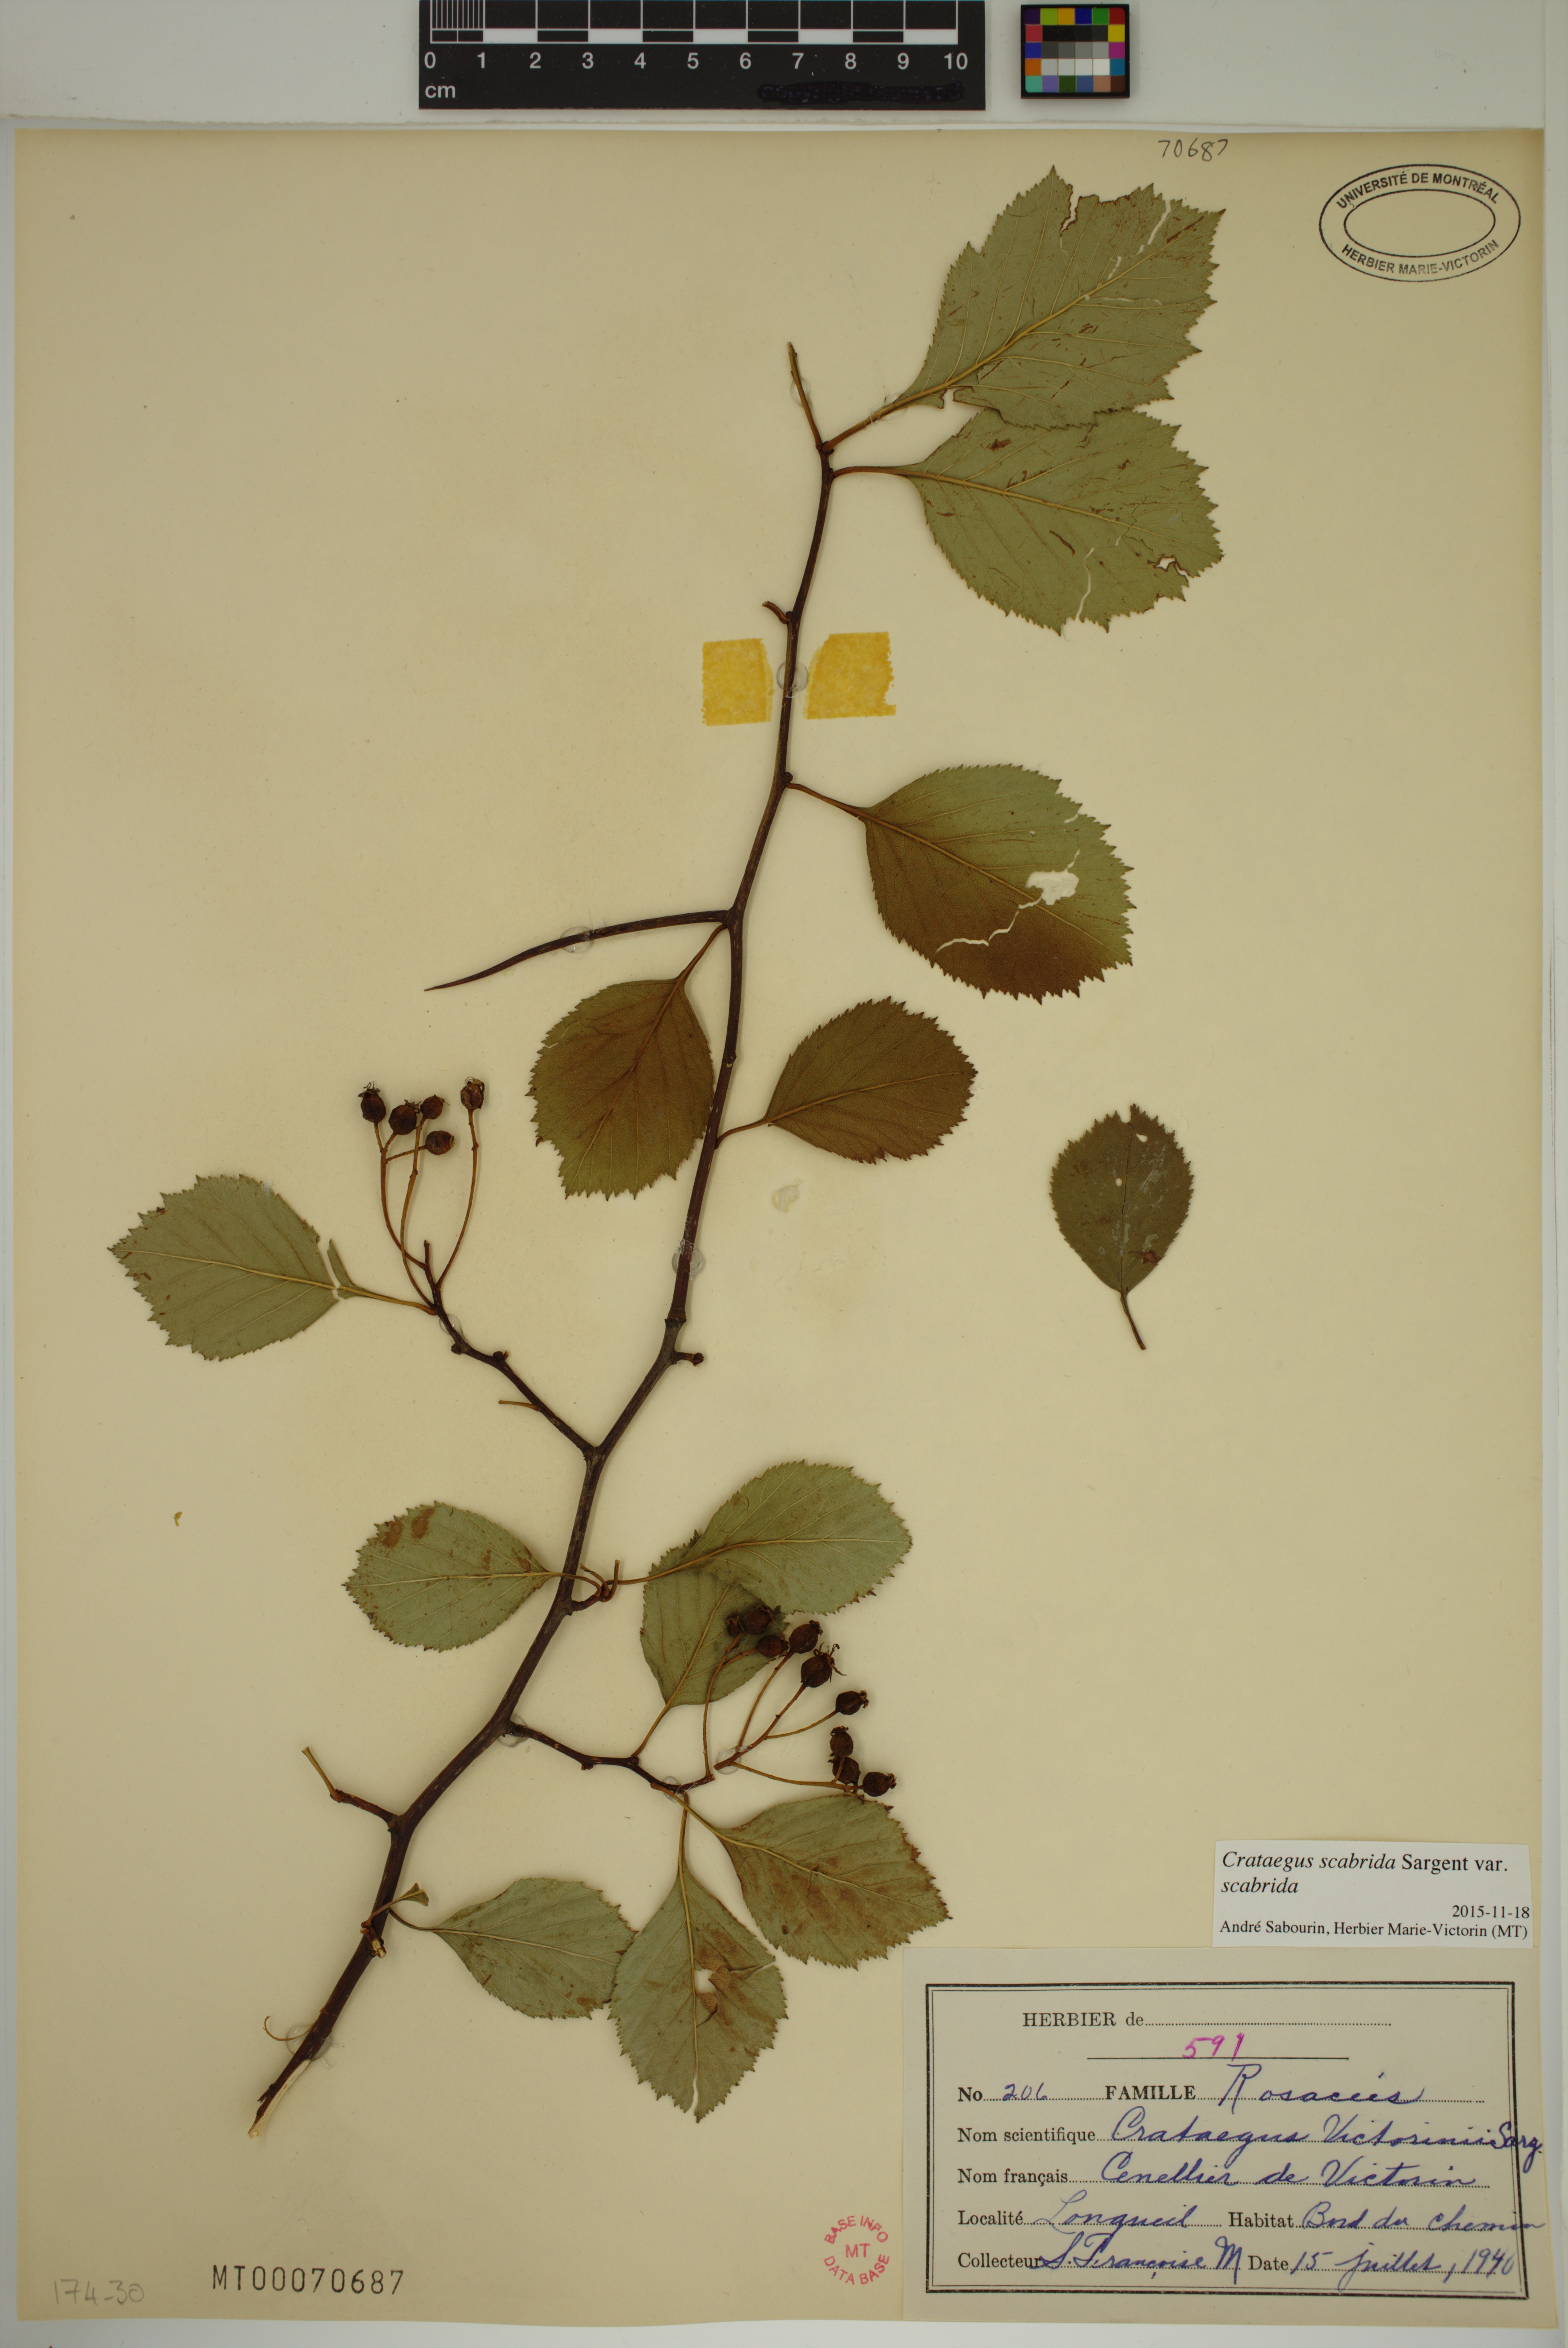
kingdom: Plantae
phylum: Tracheophyta
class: Magnoliopsida
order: Rosales
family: Rosaceae
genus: Crataegus
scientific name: Crataegus
